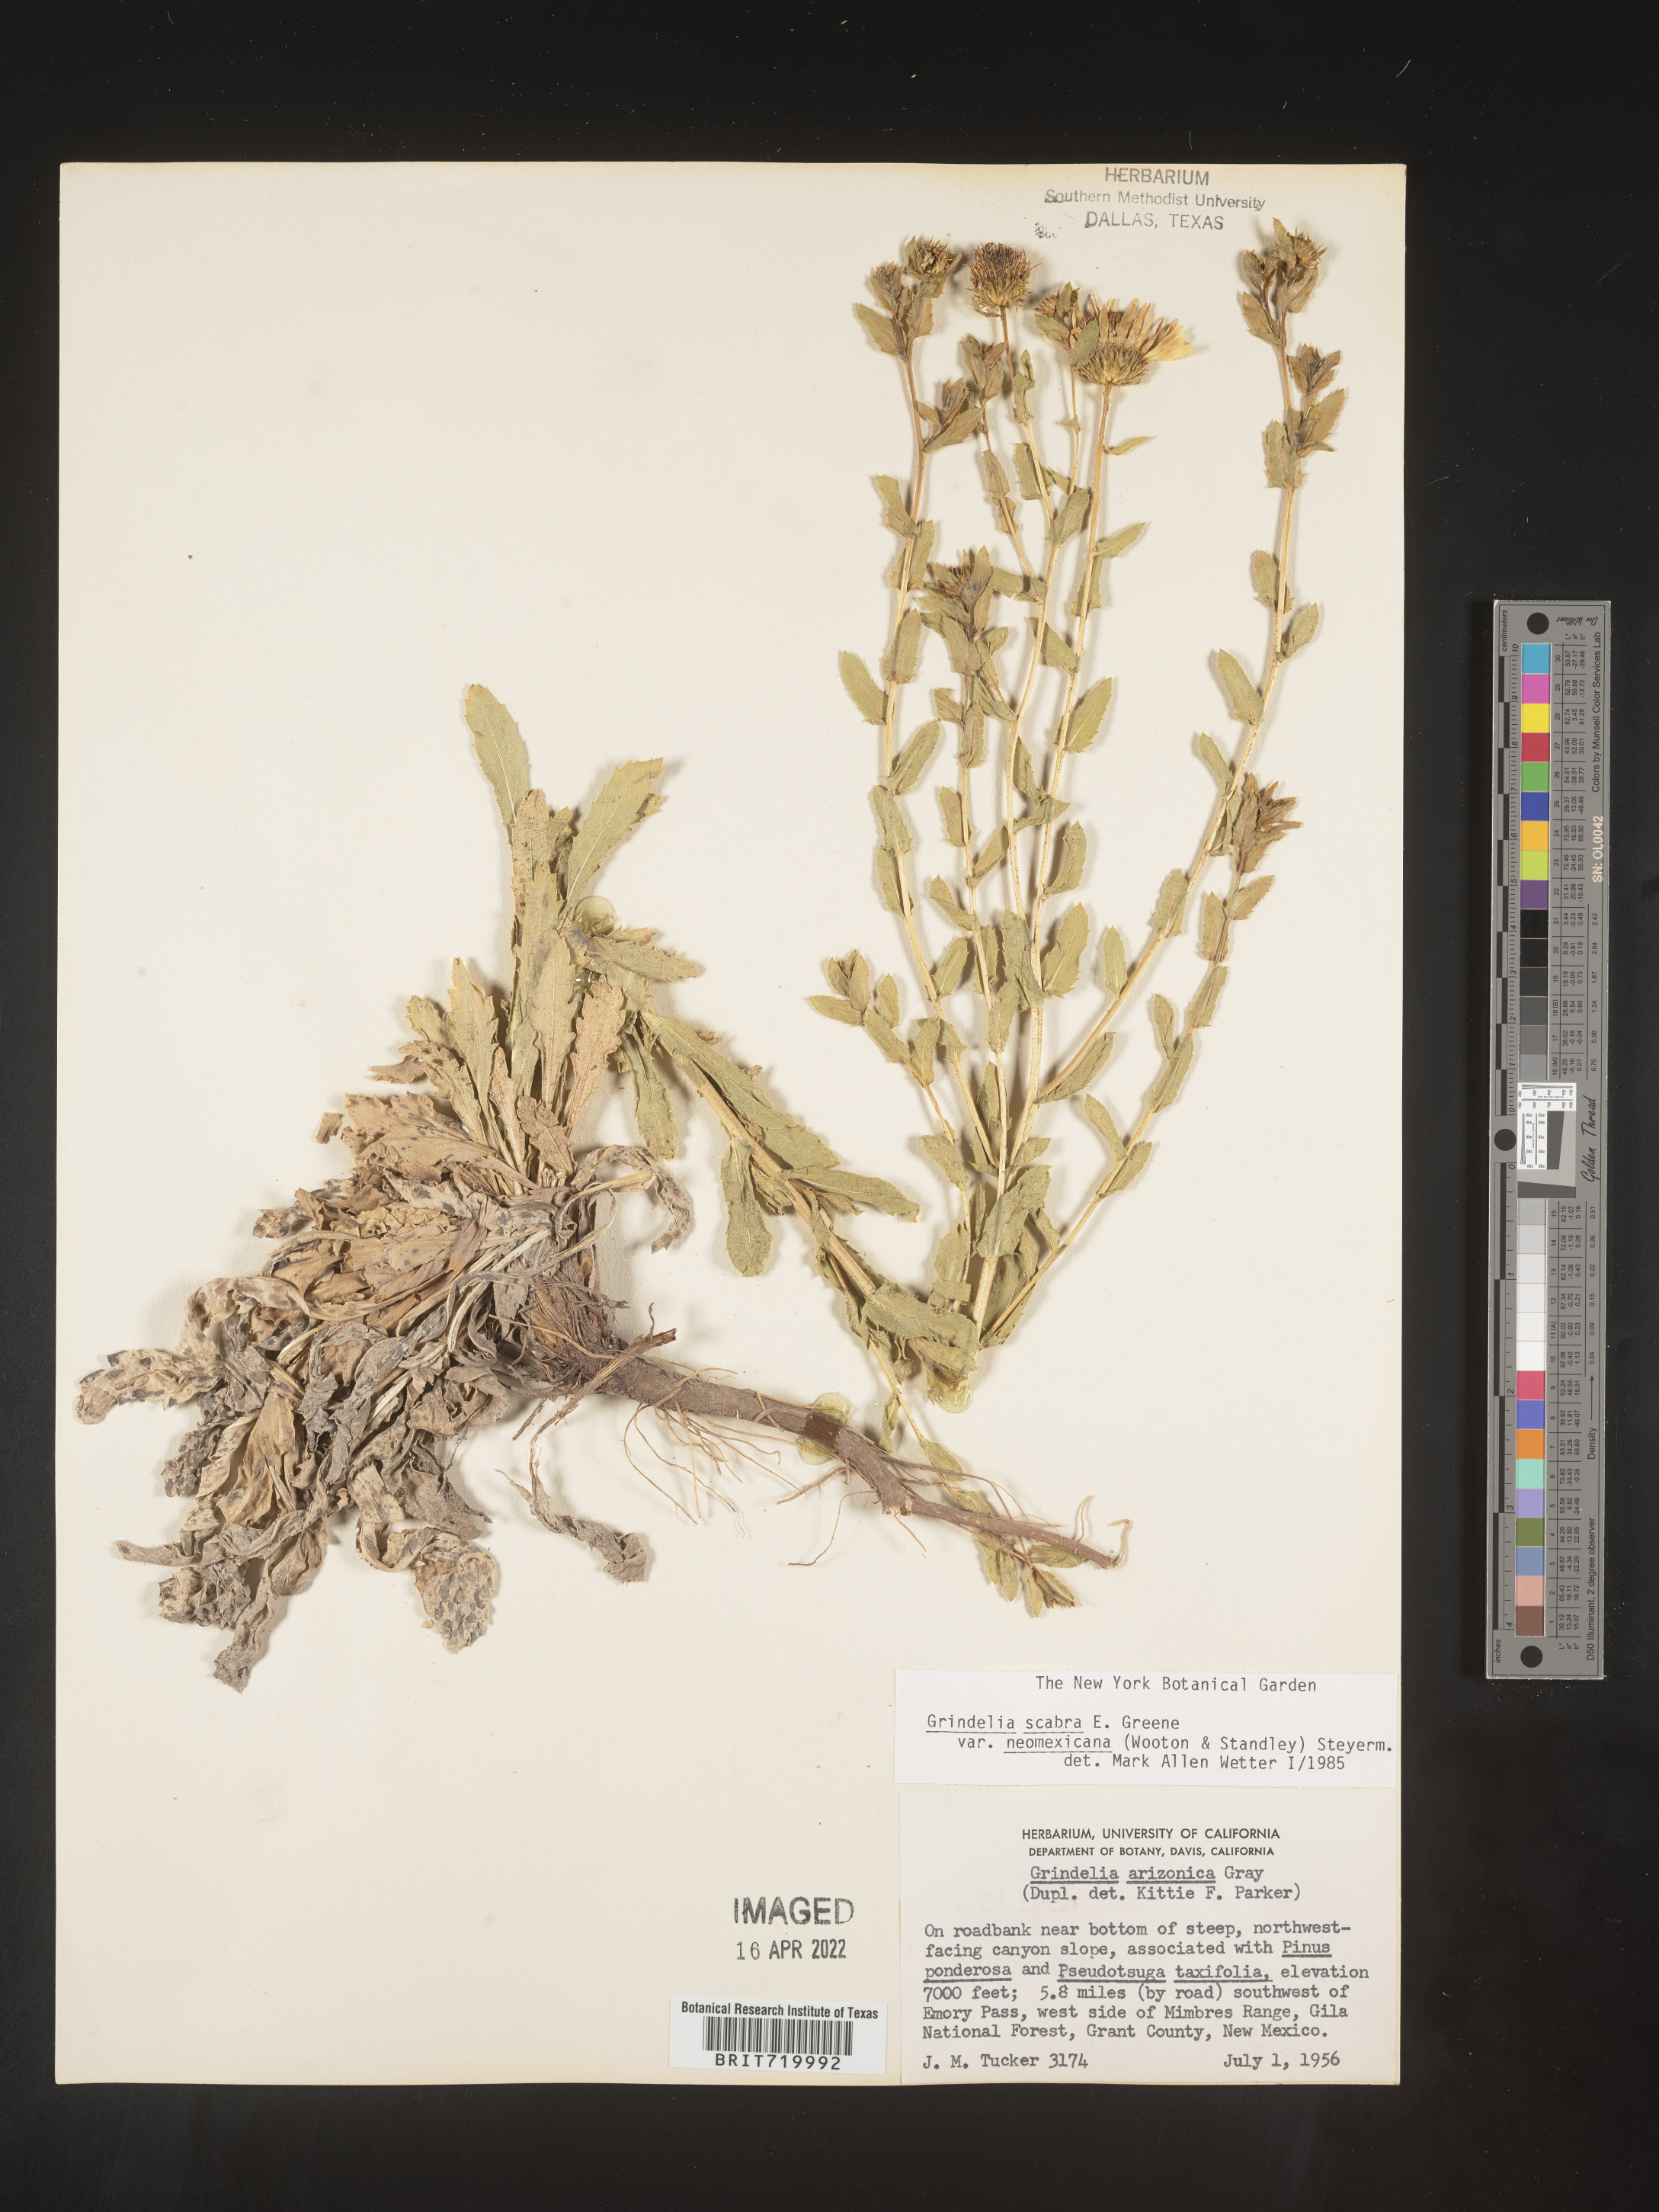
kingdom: Plantae
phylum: Tracheophyta
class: Magnoliopsida
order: Asterales
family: Asteraceae
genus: Grindelia
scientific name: Grindelia arizonica
